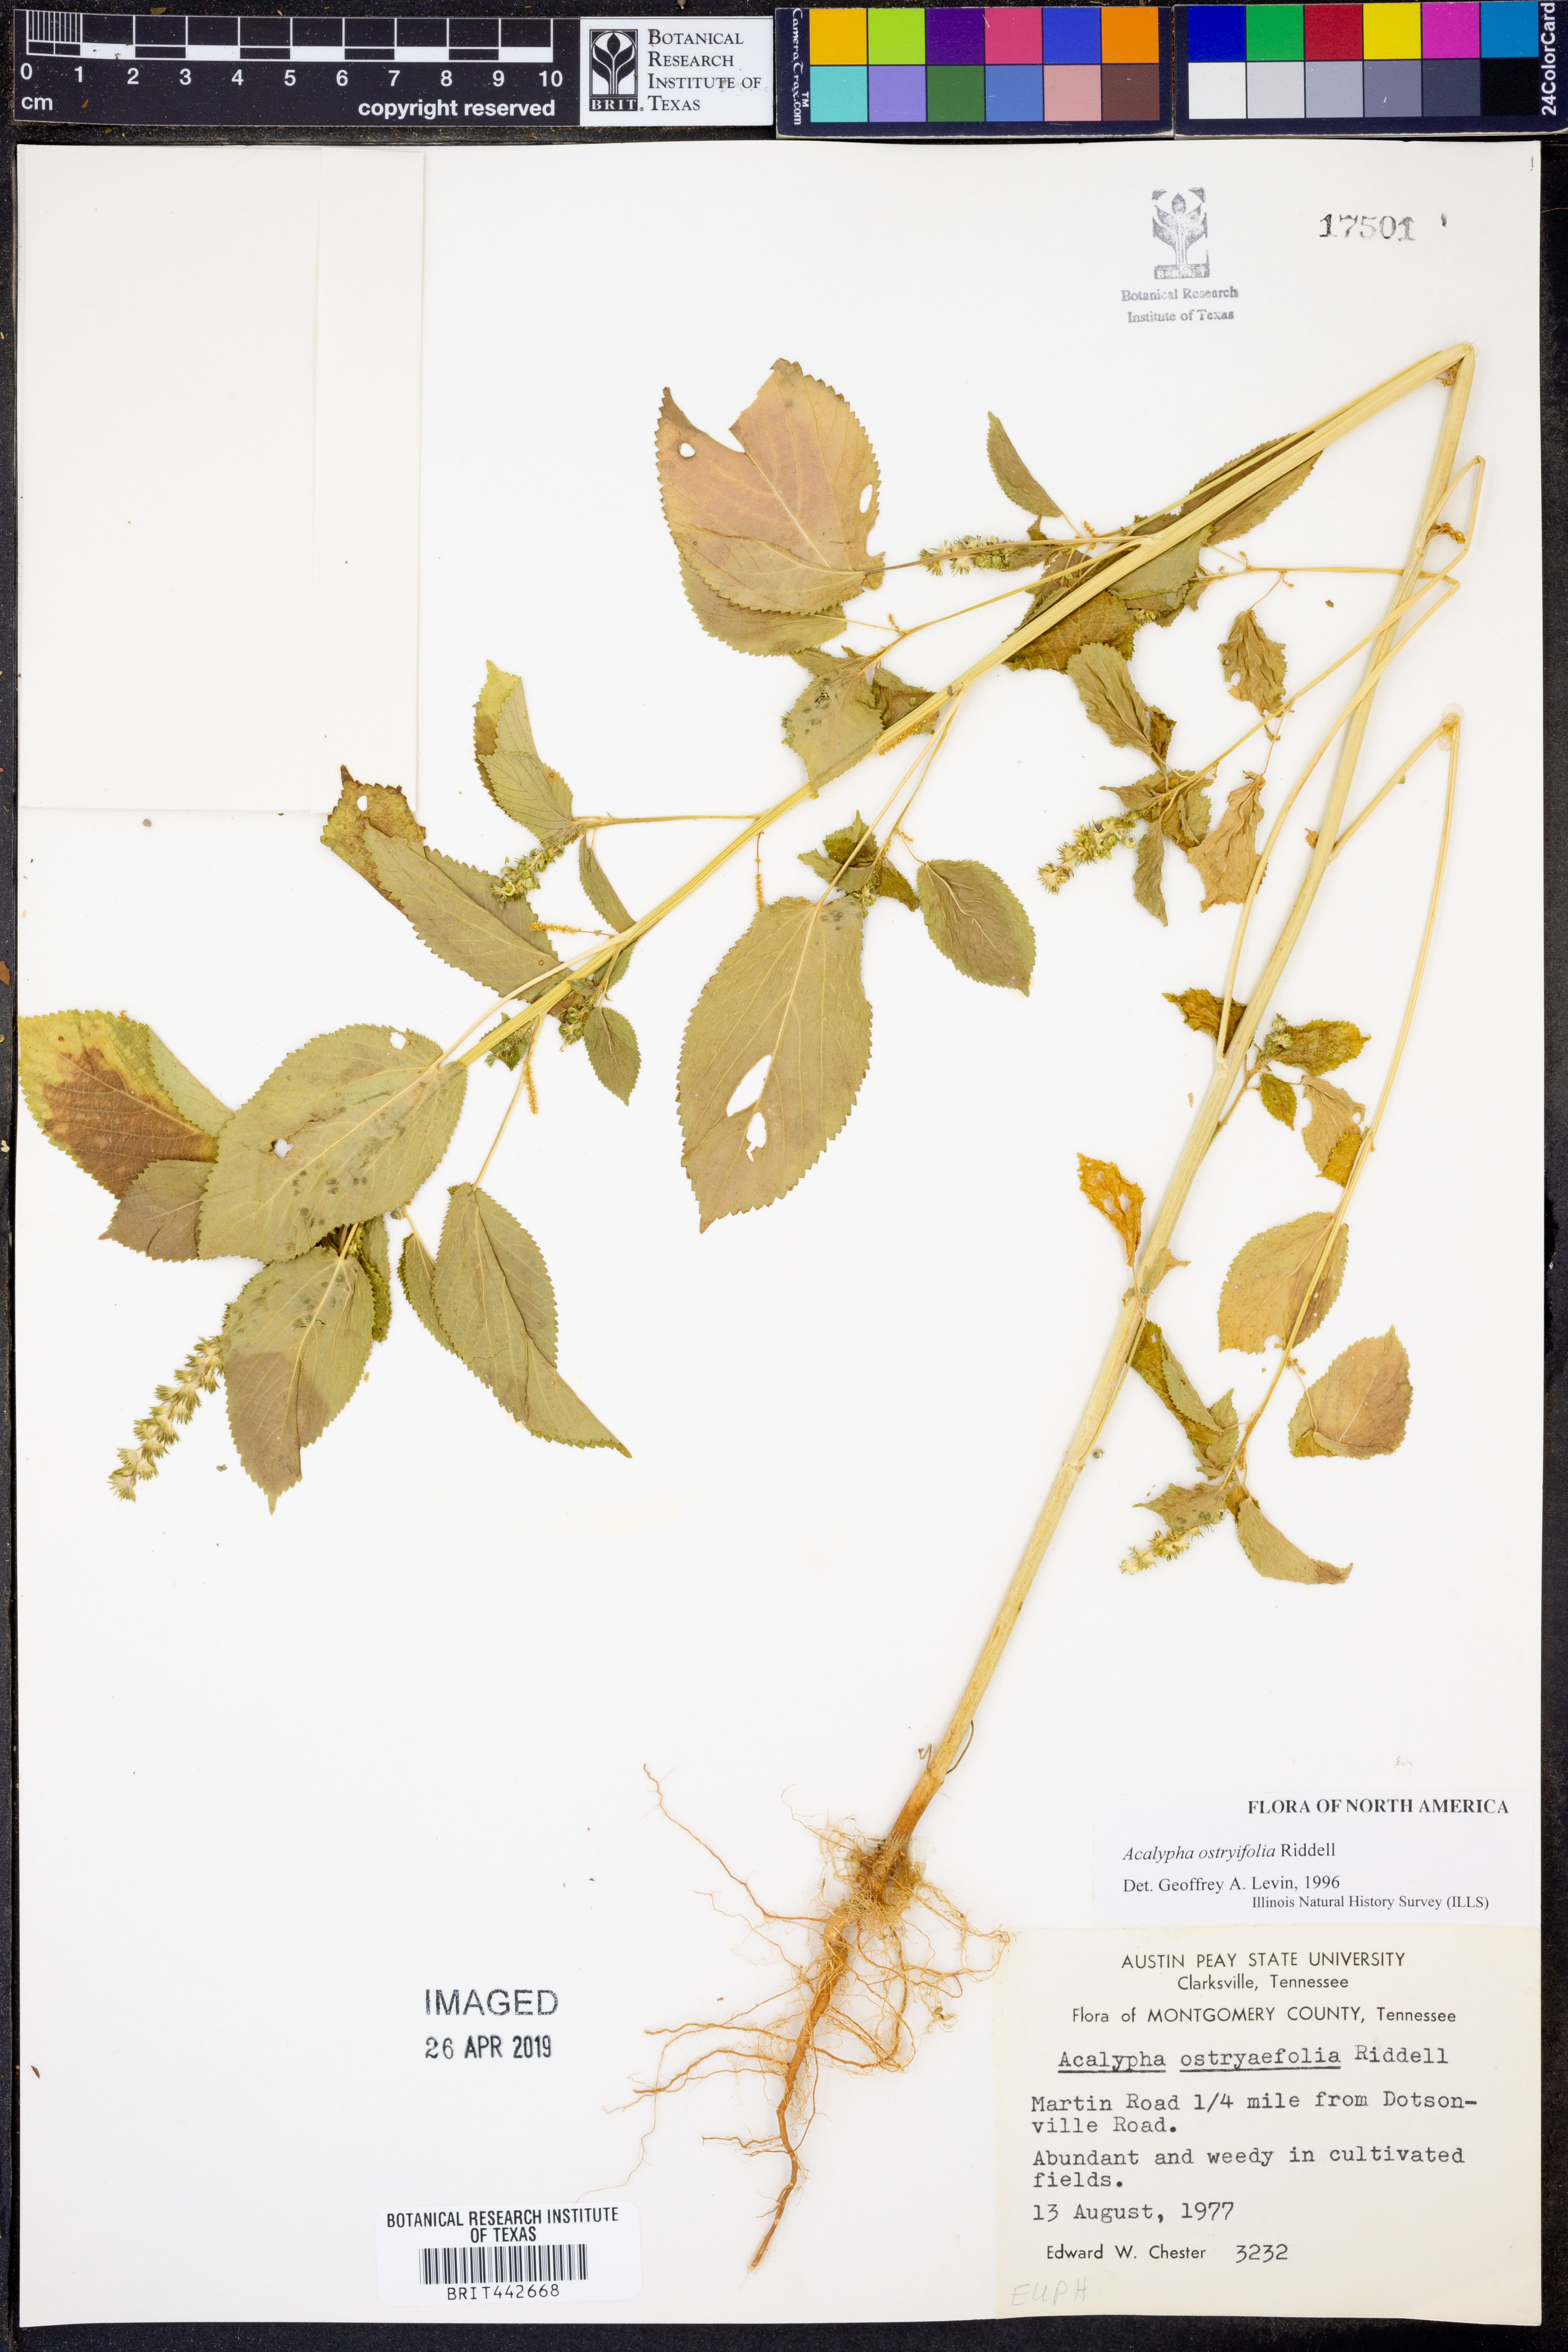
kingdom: Plantae
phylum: Tracheophyta
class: Magnoliopsida
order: Malpighiales
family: Euphorbiaceae
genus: Acalypha
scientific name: Acalypha ostryifolia
